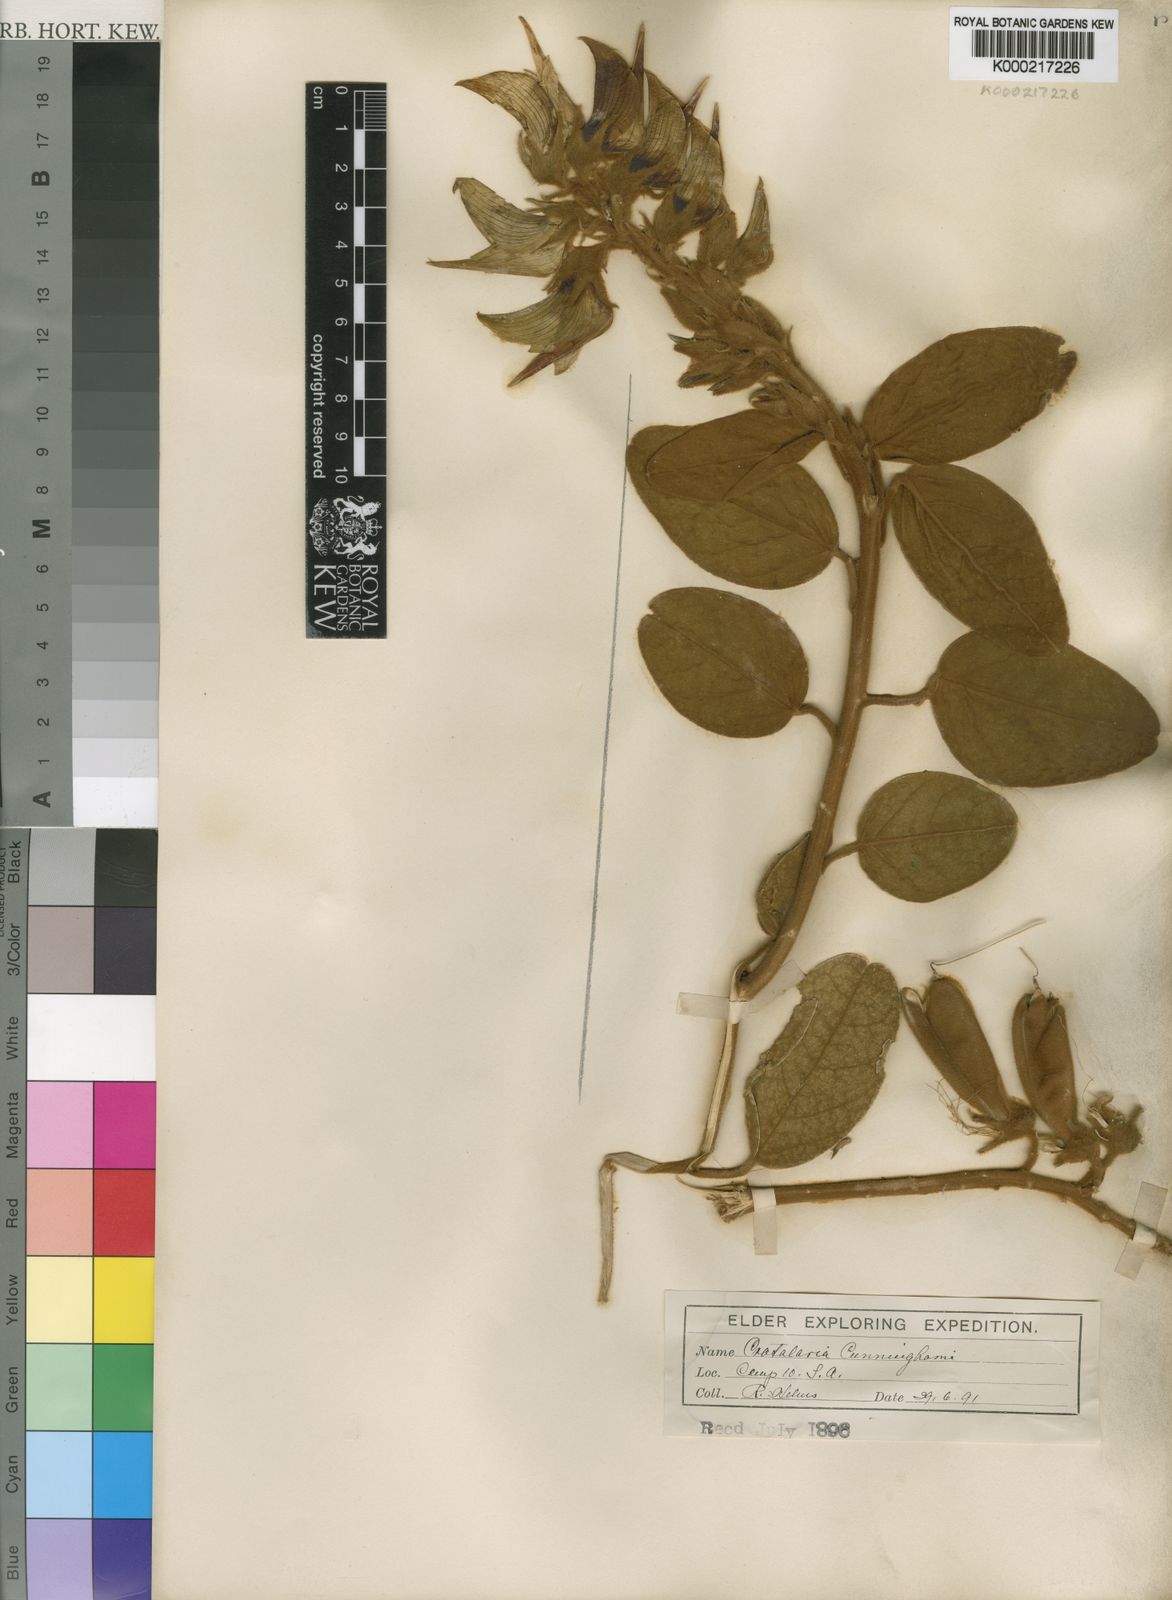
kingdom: Plantae
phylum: Tracheophyta
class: Magnoliopsida
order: Fabales
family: Fabaceae
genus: Crotalaria
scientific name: Crotalaria cunninghamii
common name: Birdflower rattlepod
